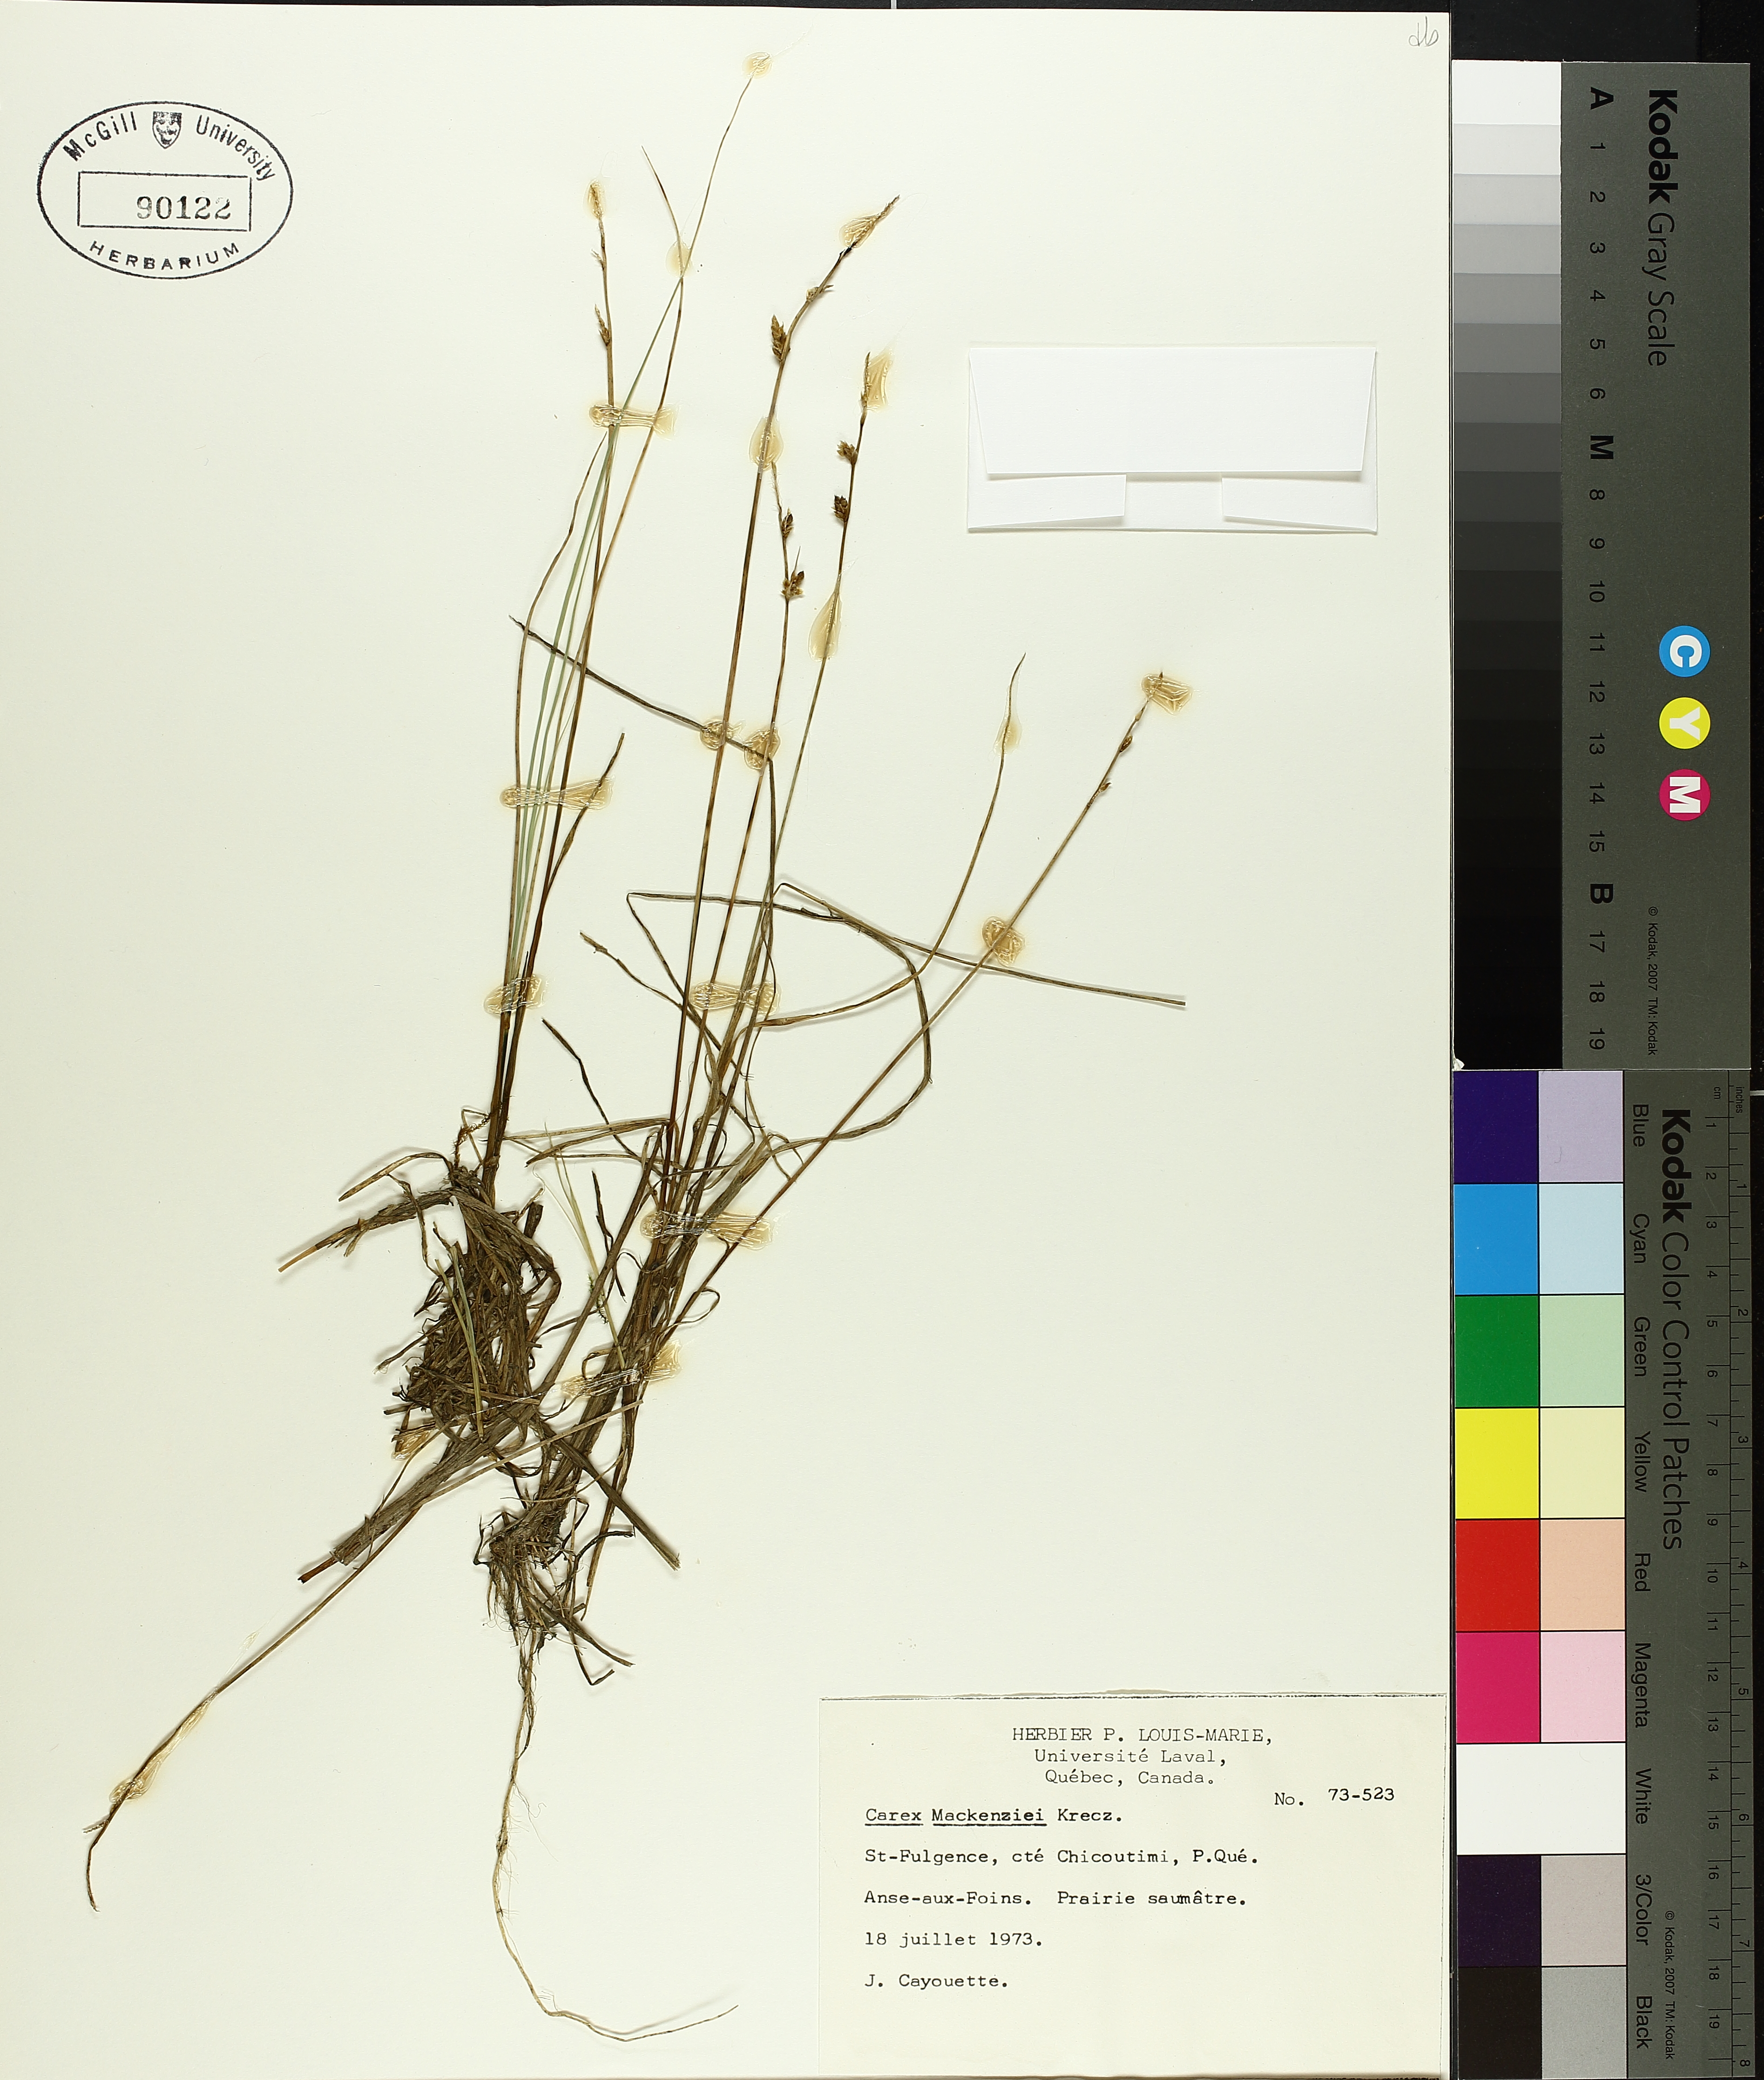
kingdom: Plantae
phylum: Tracheophyta
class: Liliopsida
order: Poales
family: Cyperaceae
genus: Carex
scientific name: Carex mackenziei
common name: Mackenzie's sedge
